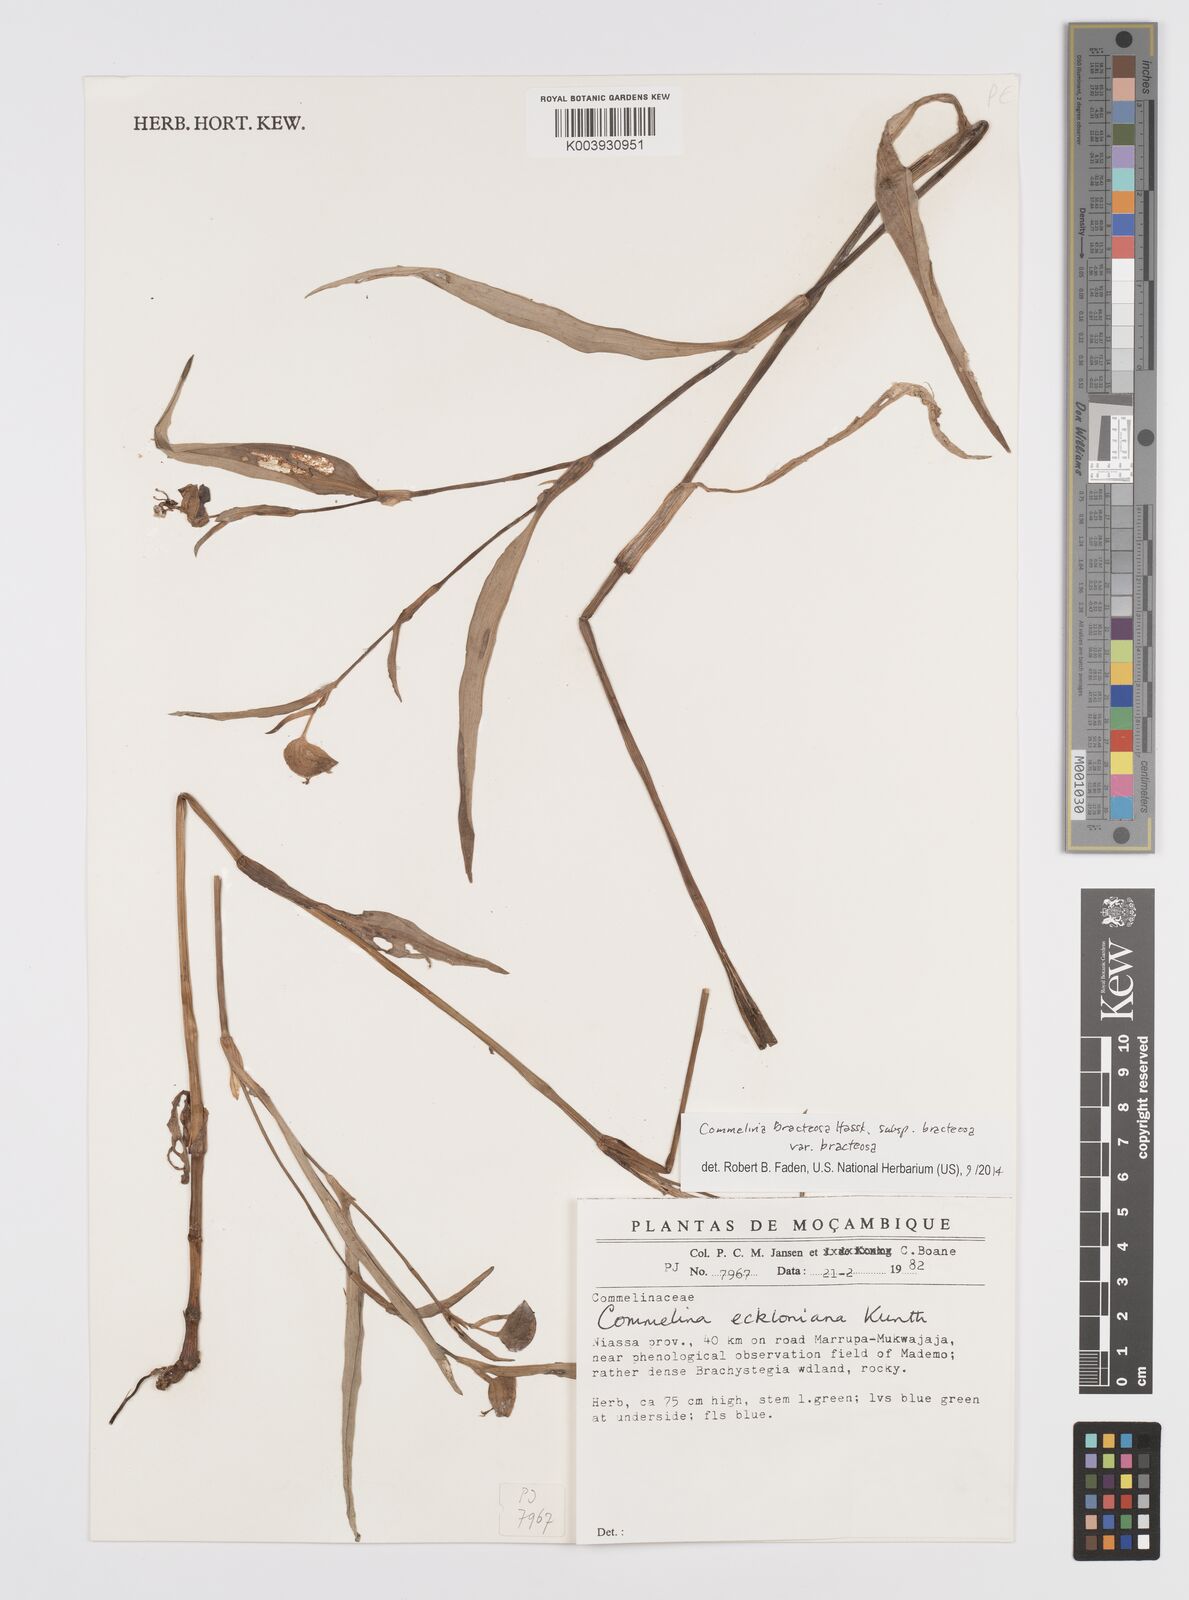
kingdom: Plantae
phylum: Tracheophyta
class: Liliopsida
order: Commelinales
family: Commelinaceae
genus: Commelina
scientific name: Commelina bracteosa
